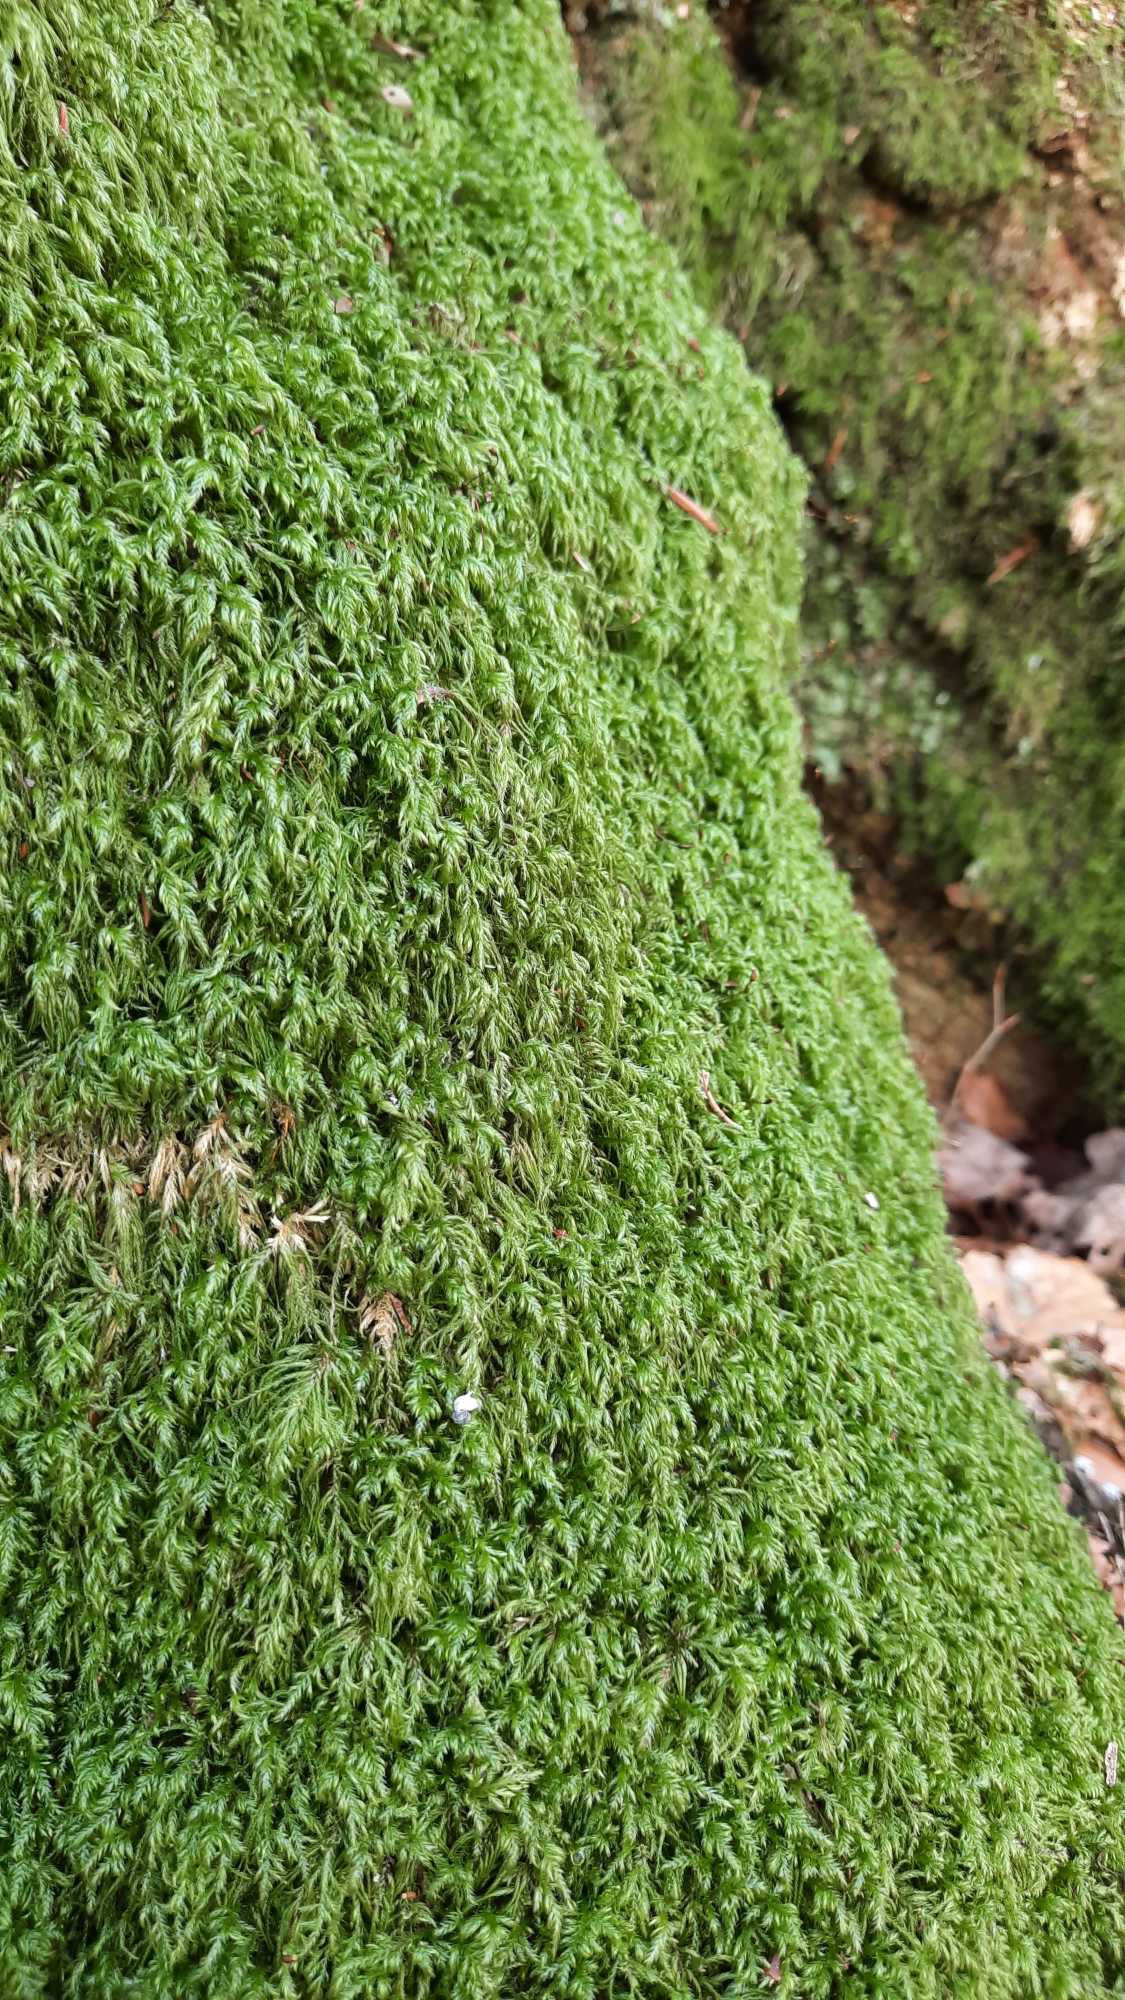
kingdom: Plantae
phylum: Bryophyta
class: Bryopsida
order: Hypnales
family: Lembophyllaceae
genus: Pseudisothecium
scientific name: Pseudisothecium myosuroides
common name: Slank stammemos
